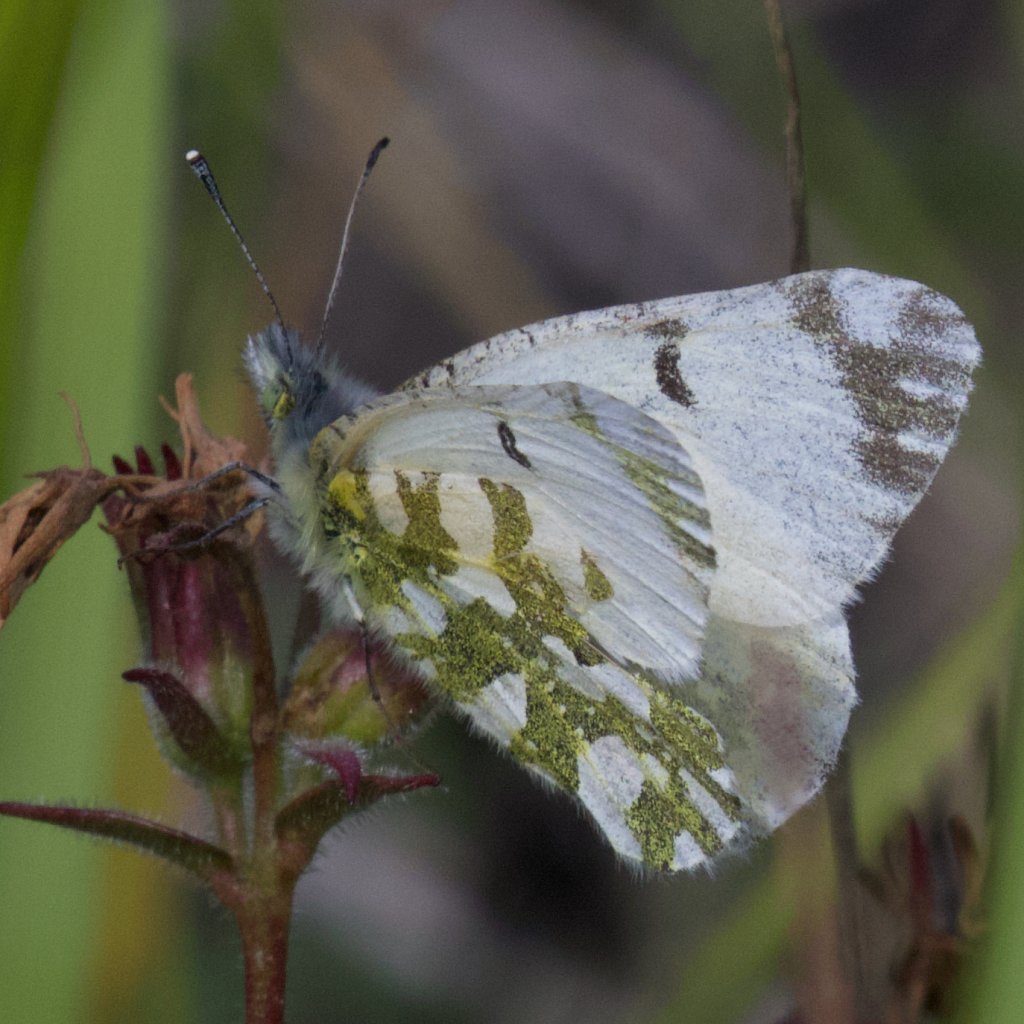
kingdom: Animalia
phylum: Arthropoda
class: Insecta
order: Lepidoptera
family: Pieridae
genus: Euchloe
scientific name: Euchloe ausonides
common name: Large Marble
